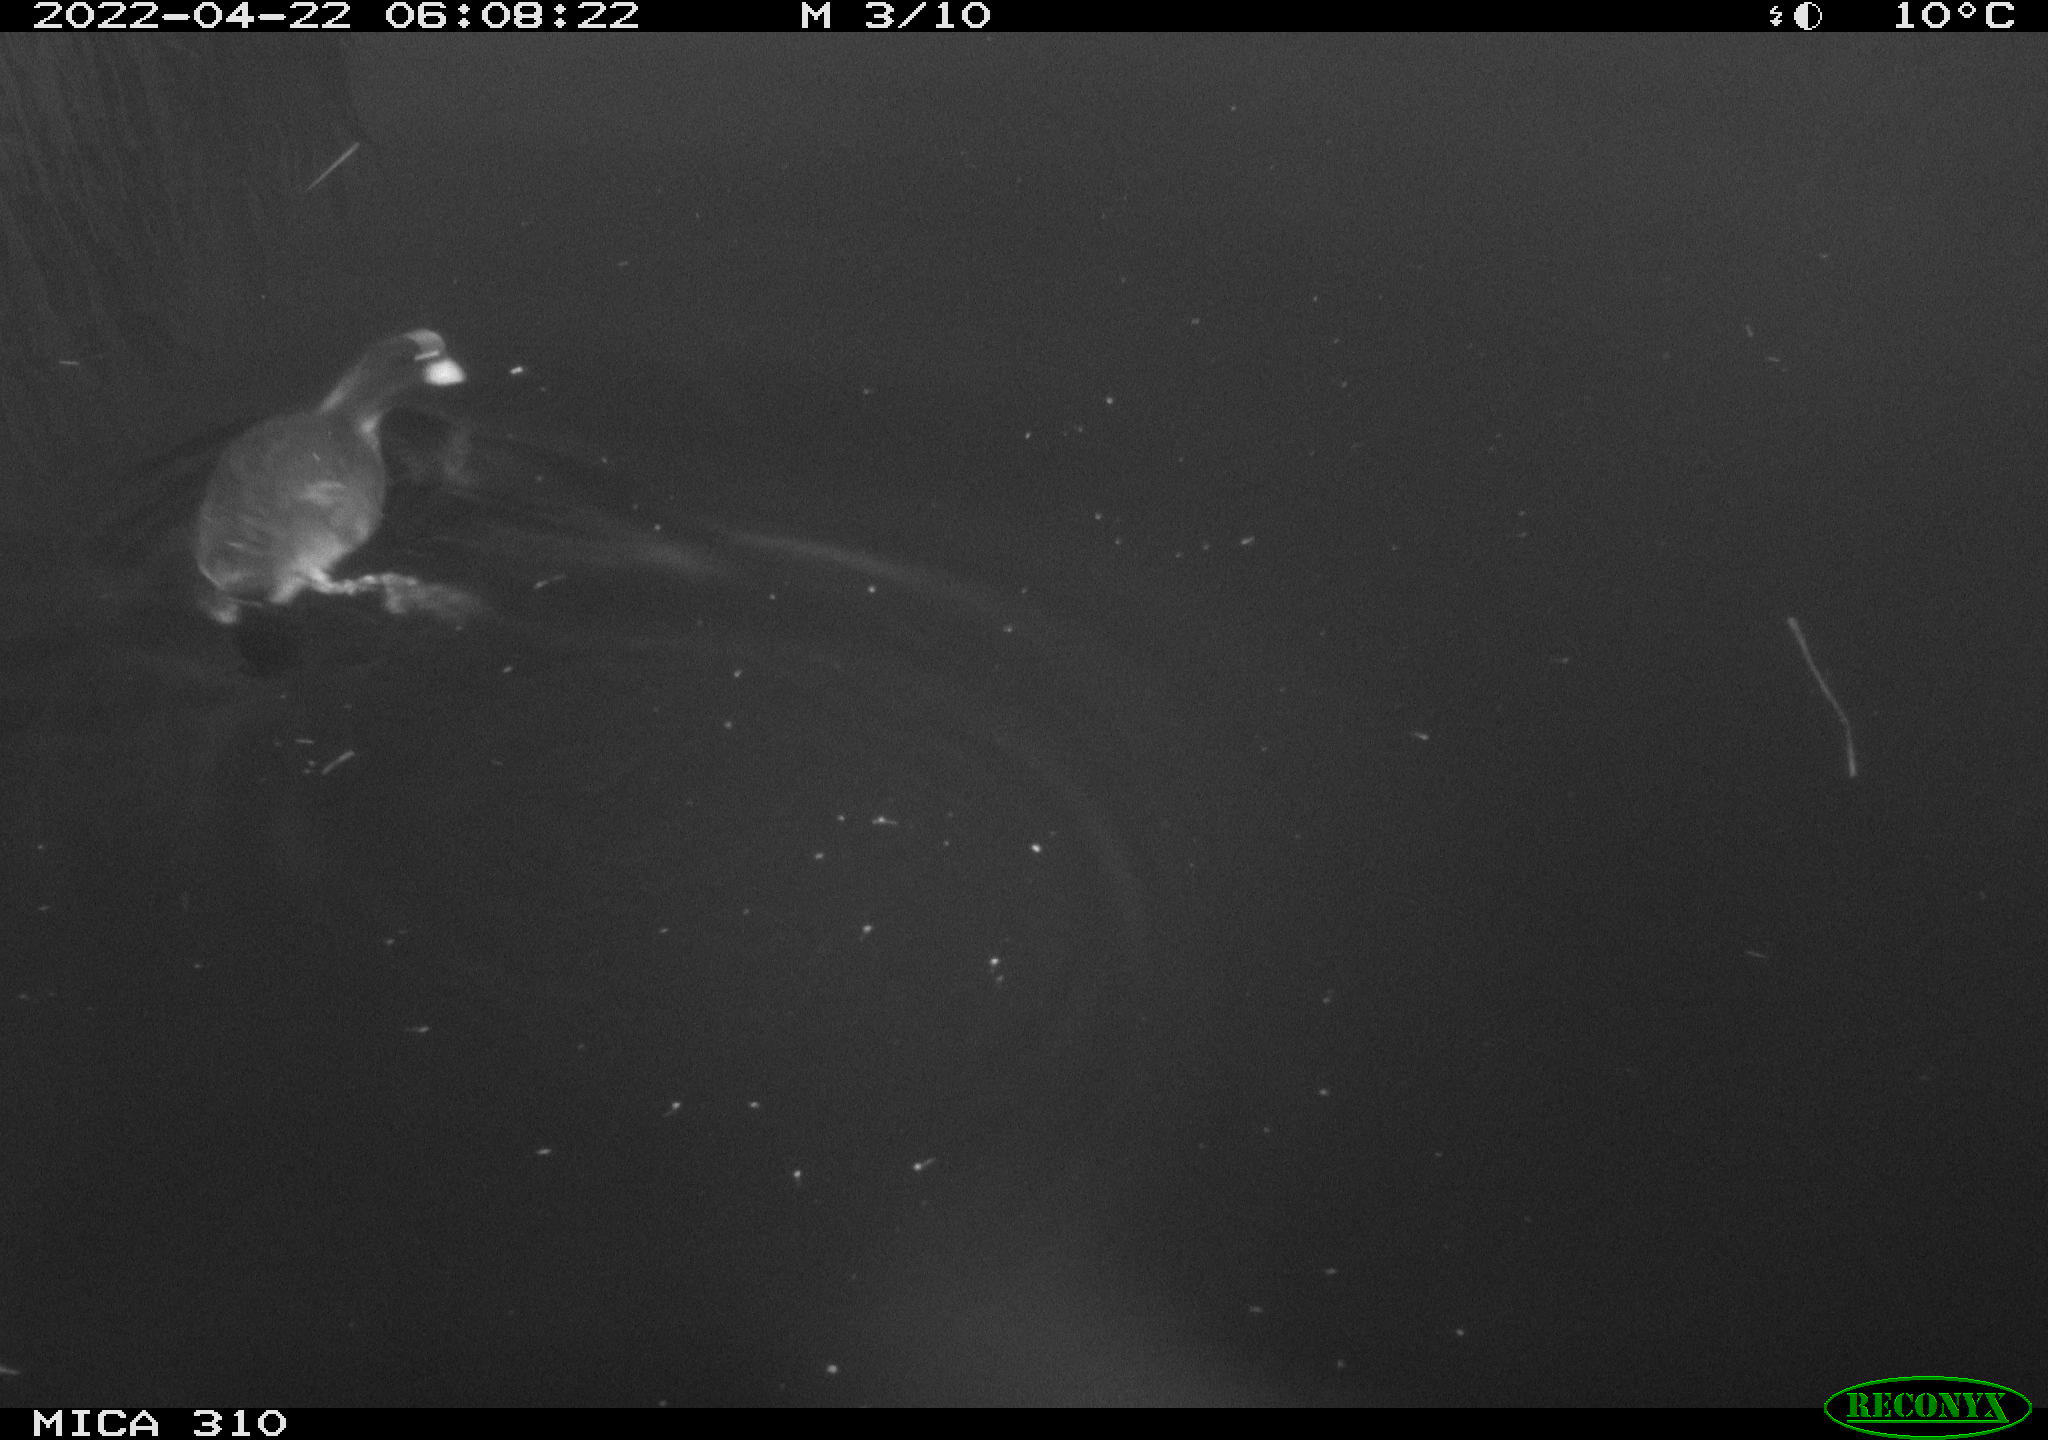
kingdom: Animalia
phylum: Chordata
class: Aves
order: Anseriformes
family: Anatidae
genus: Anas
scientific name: Anas platyrhynchos
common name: Mallard
